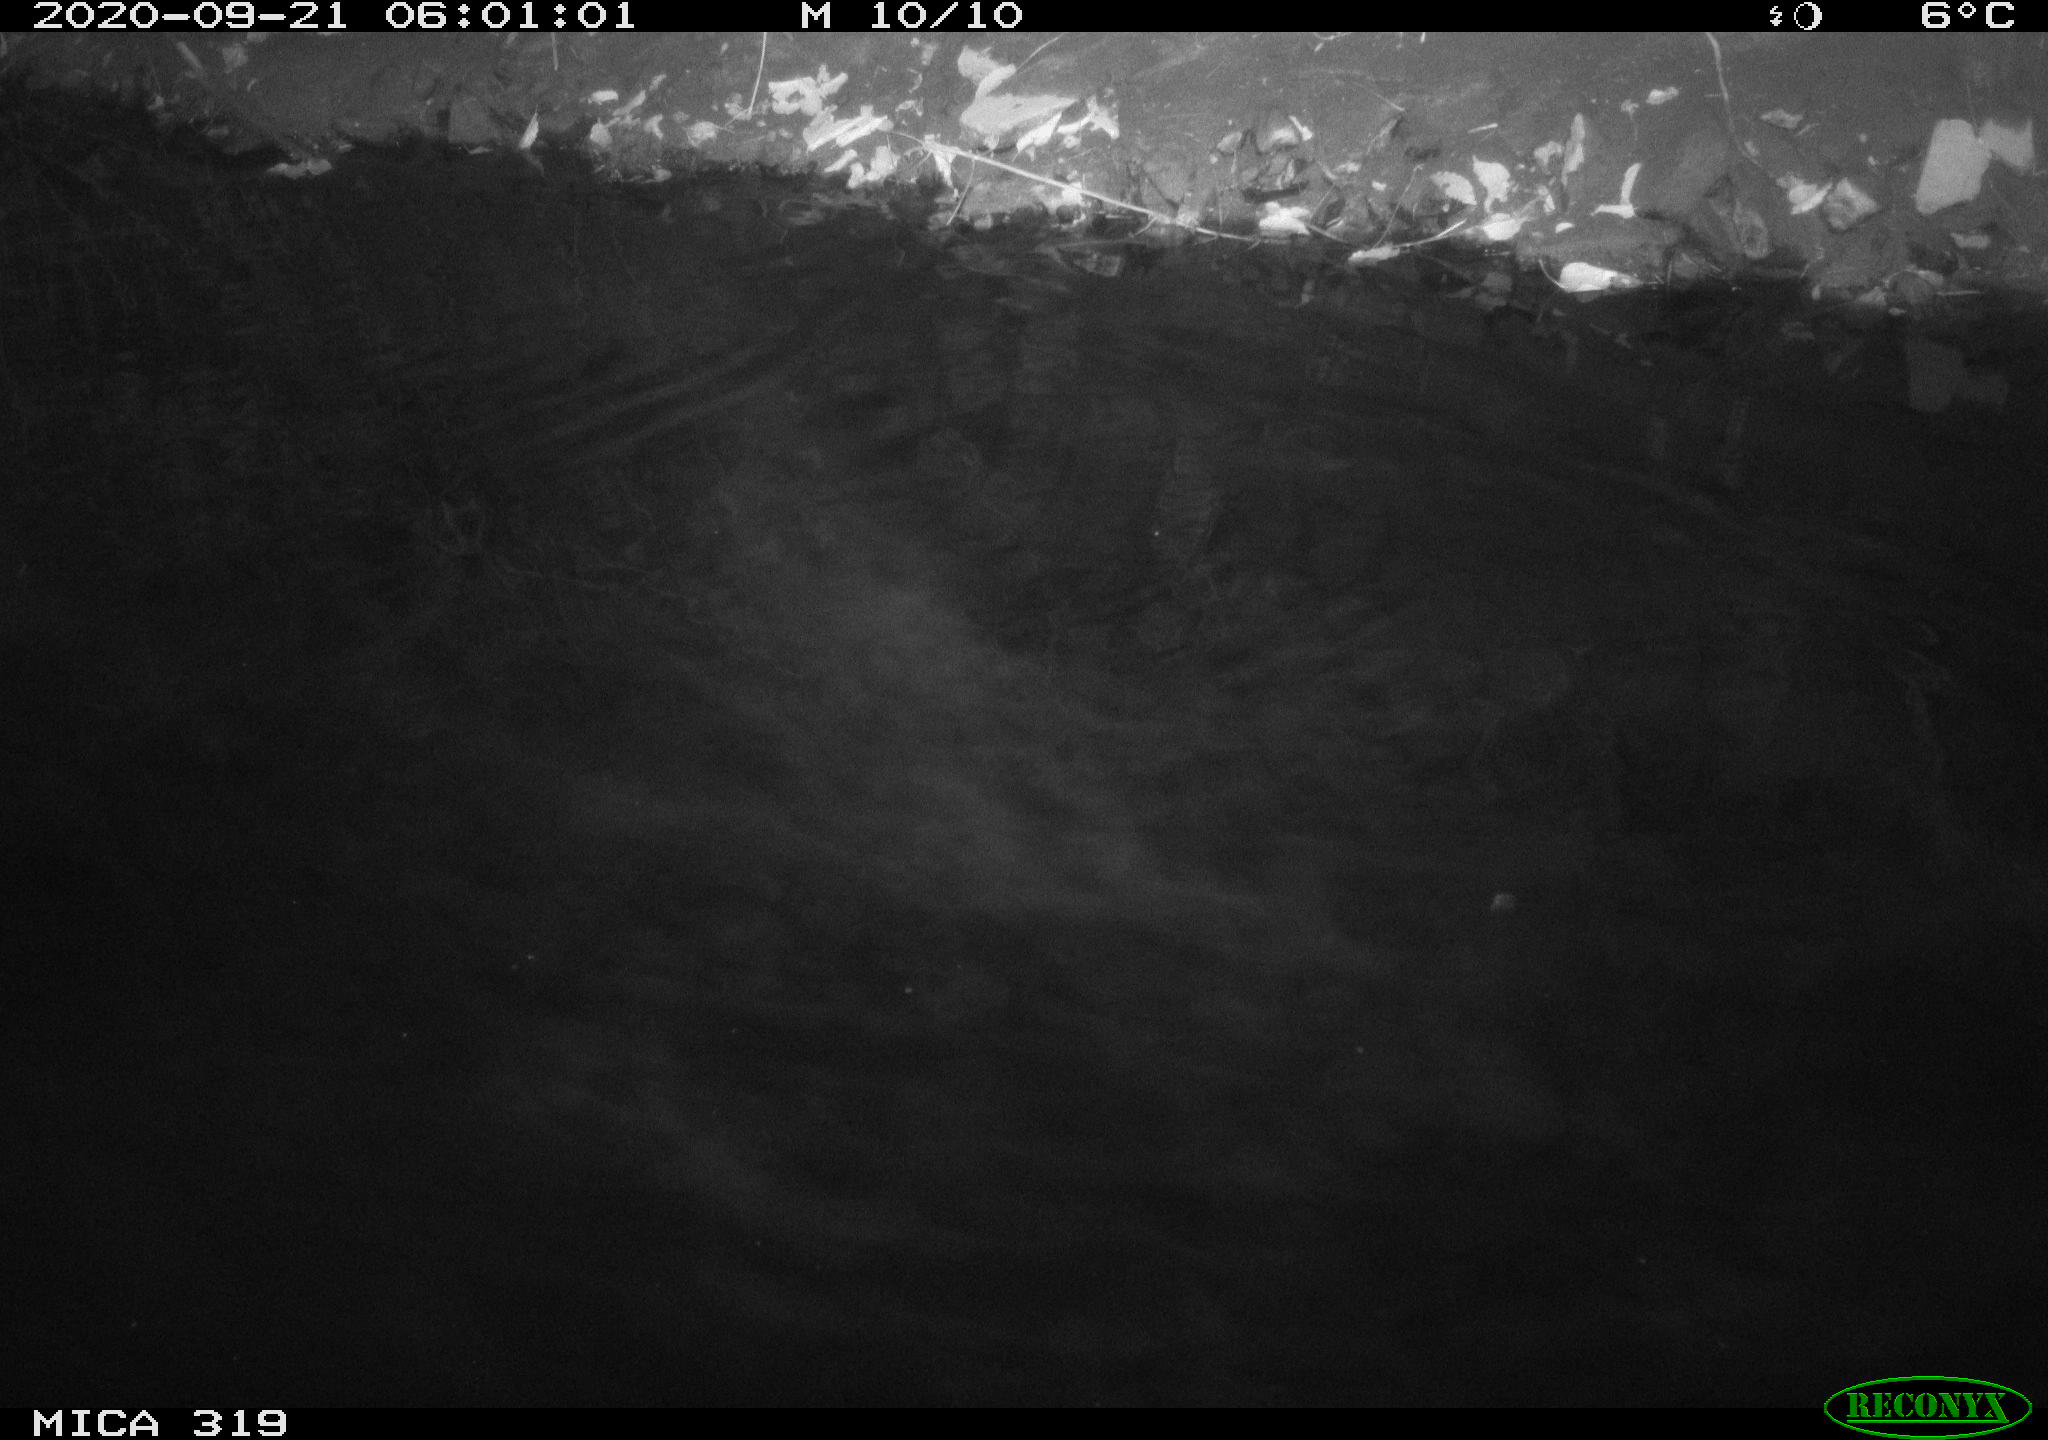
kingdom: Animalia
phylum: Chordata
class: Aves
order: Anseriformes
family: Anatidae
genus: Anas
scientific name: Anas platyrhynchos
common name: Mallard
